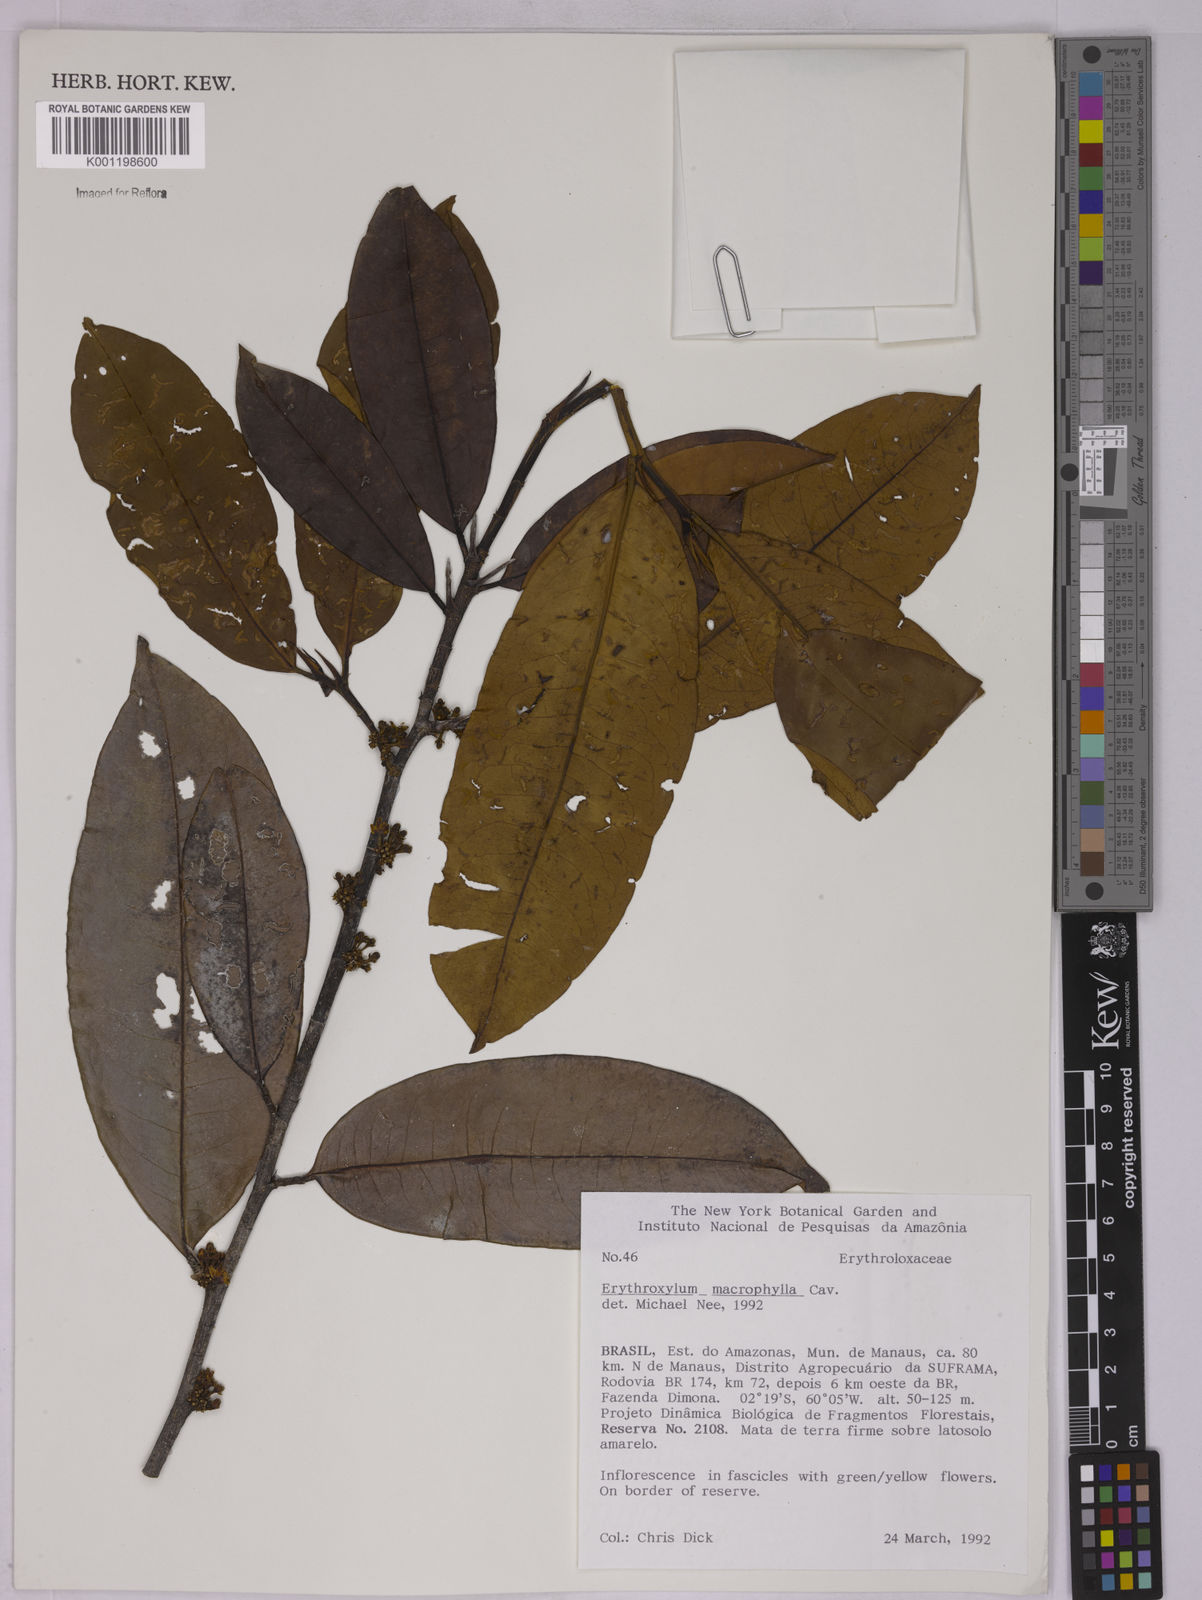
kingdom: Plantae
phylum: Tracheophyta
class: Magnoliopsida
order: Malpighiales
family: Erythroxylaceae
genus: Erythroxylum
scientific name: Erythroxylum macrophyllum
